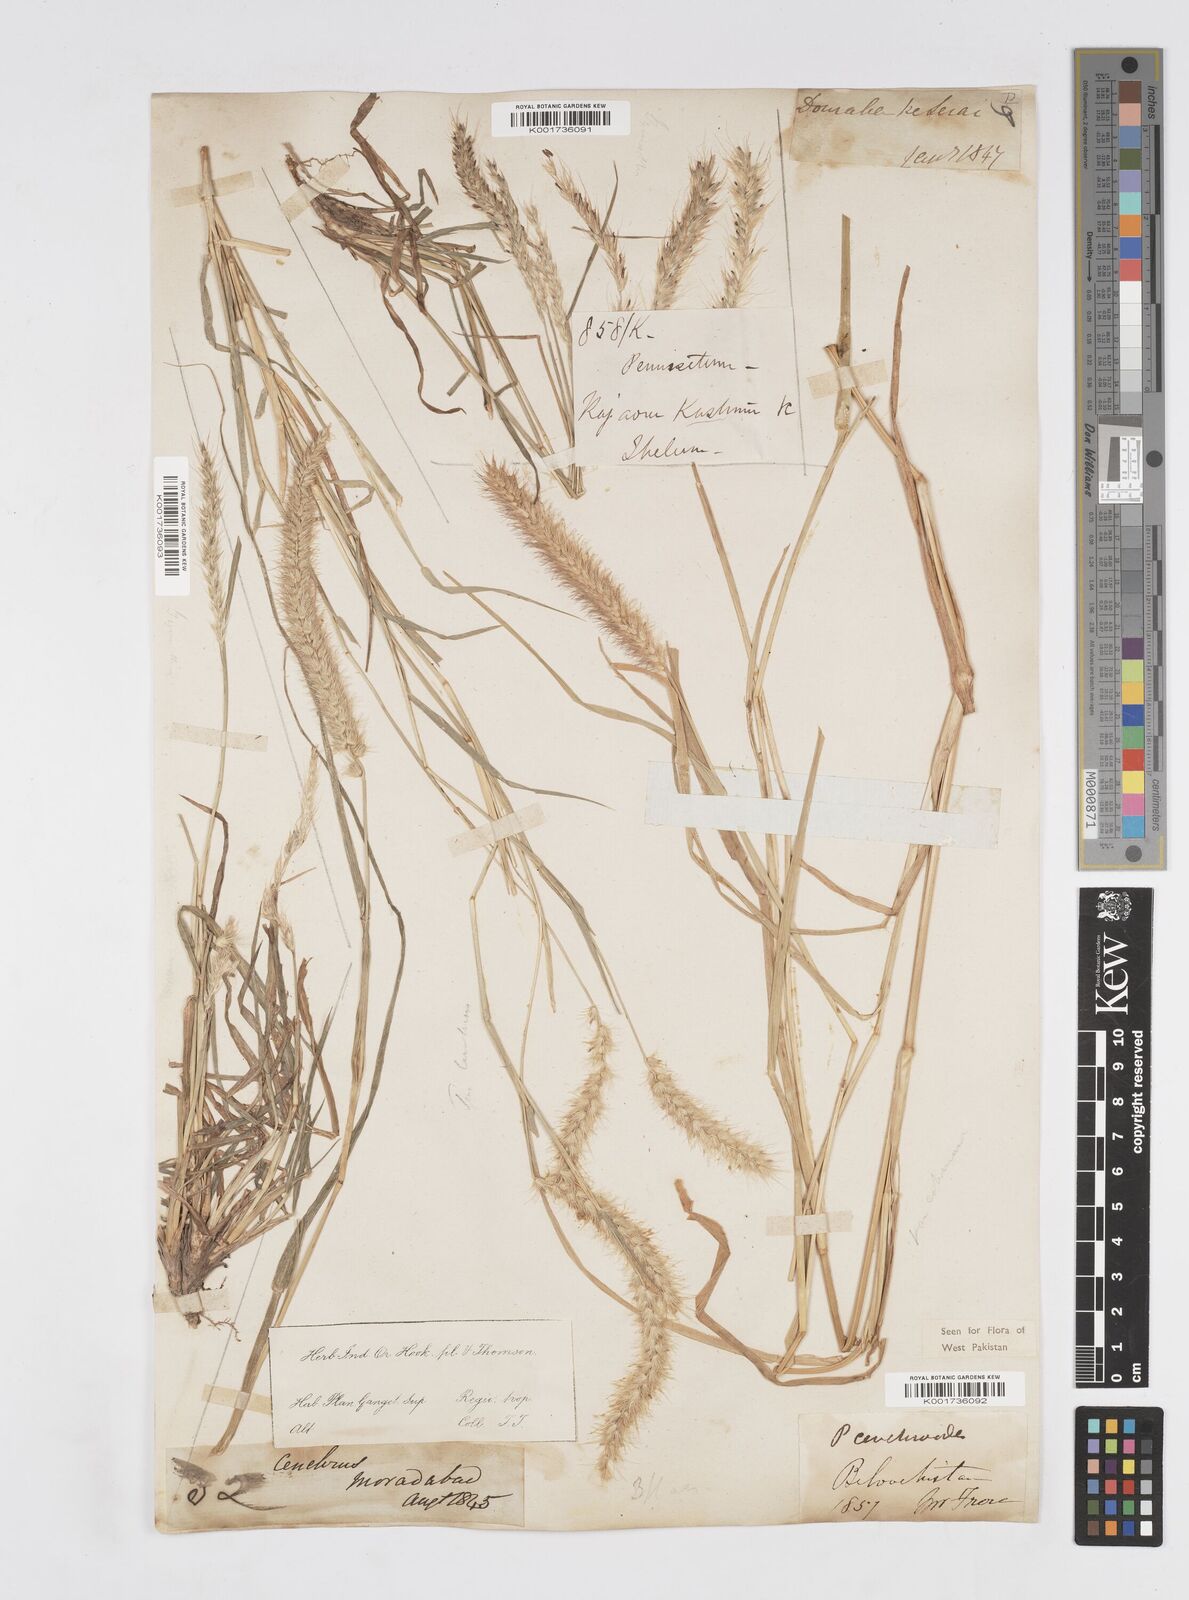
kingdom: Plantae
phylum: Tracheophyta
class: Liliopsida
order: Poales
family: Poaceae
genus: Cenchrus
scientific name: Cenchrus ciliaris
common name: Buffelgrass
